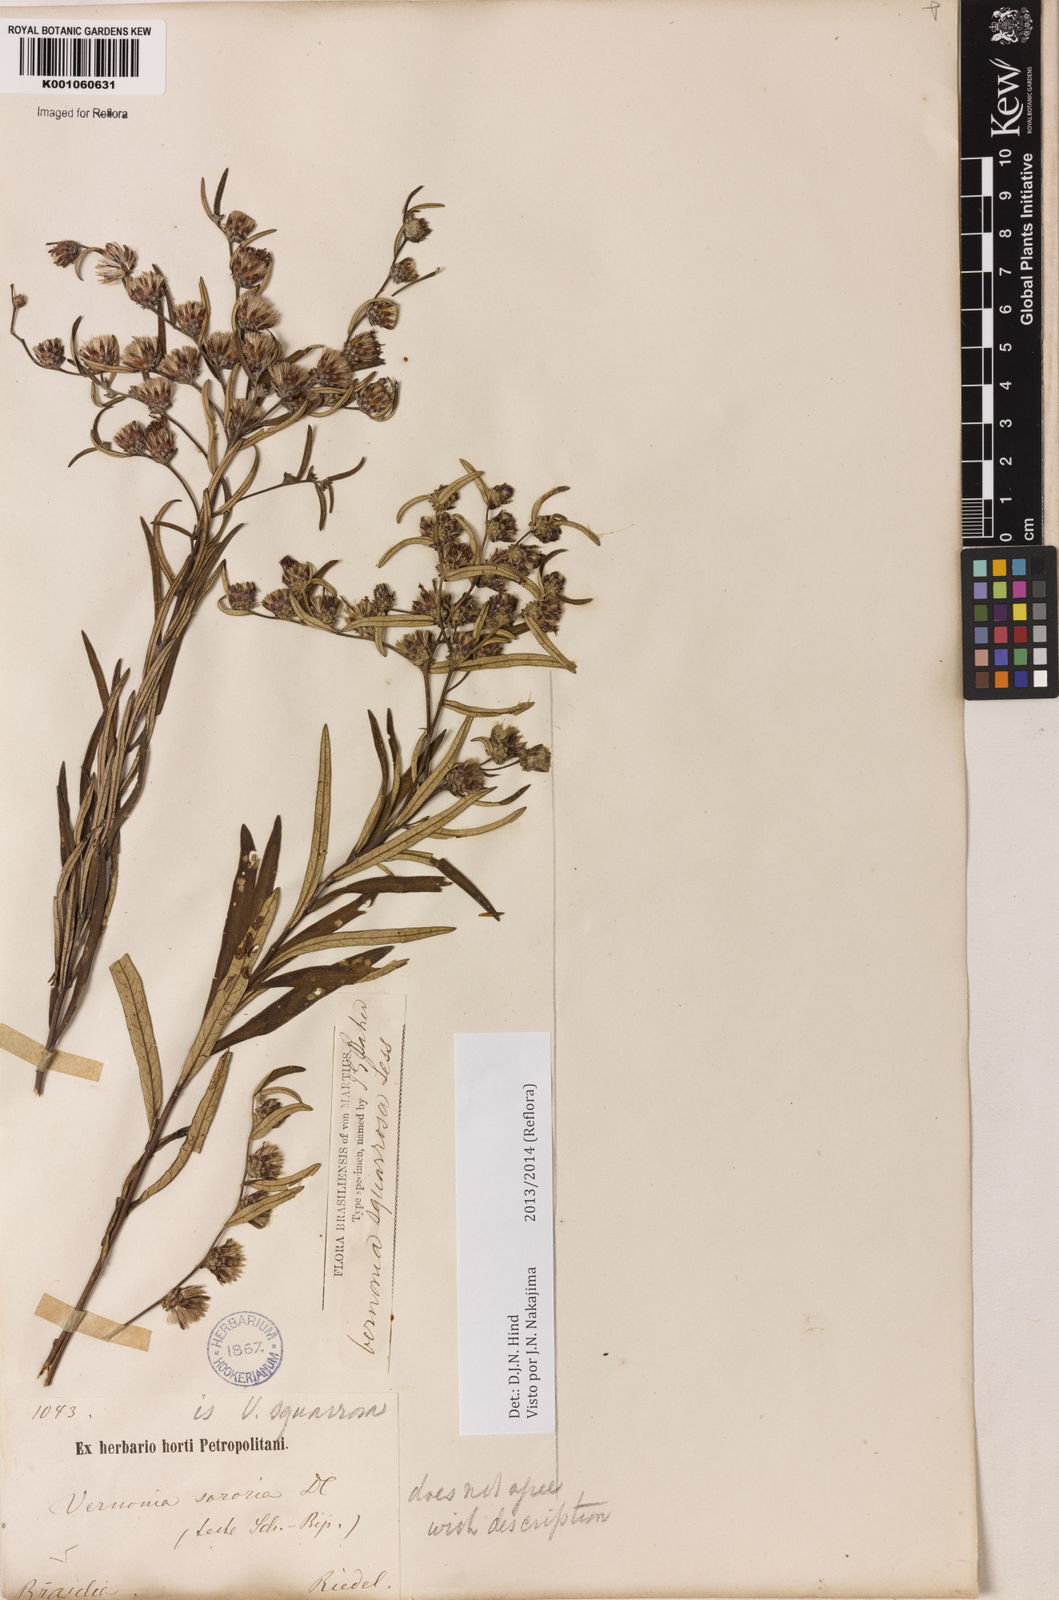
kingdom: Plantae
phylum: Tracheophyta
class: Magnoliopsida
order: Asterales
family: Asteraceae
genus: Lessingianthus
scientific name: Lessingianthus plantaginoides
